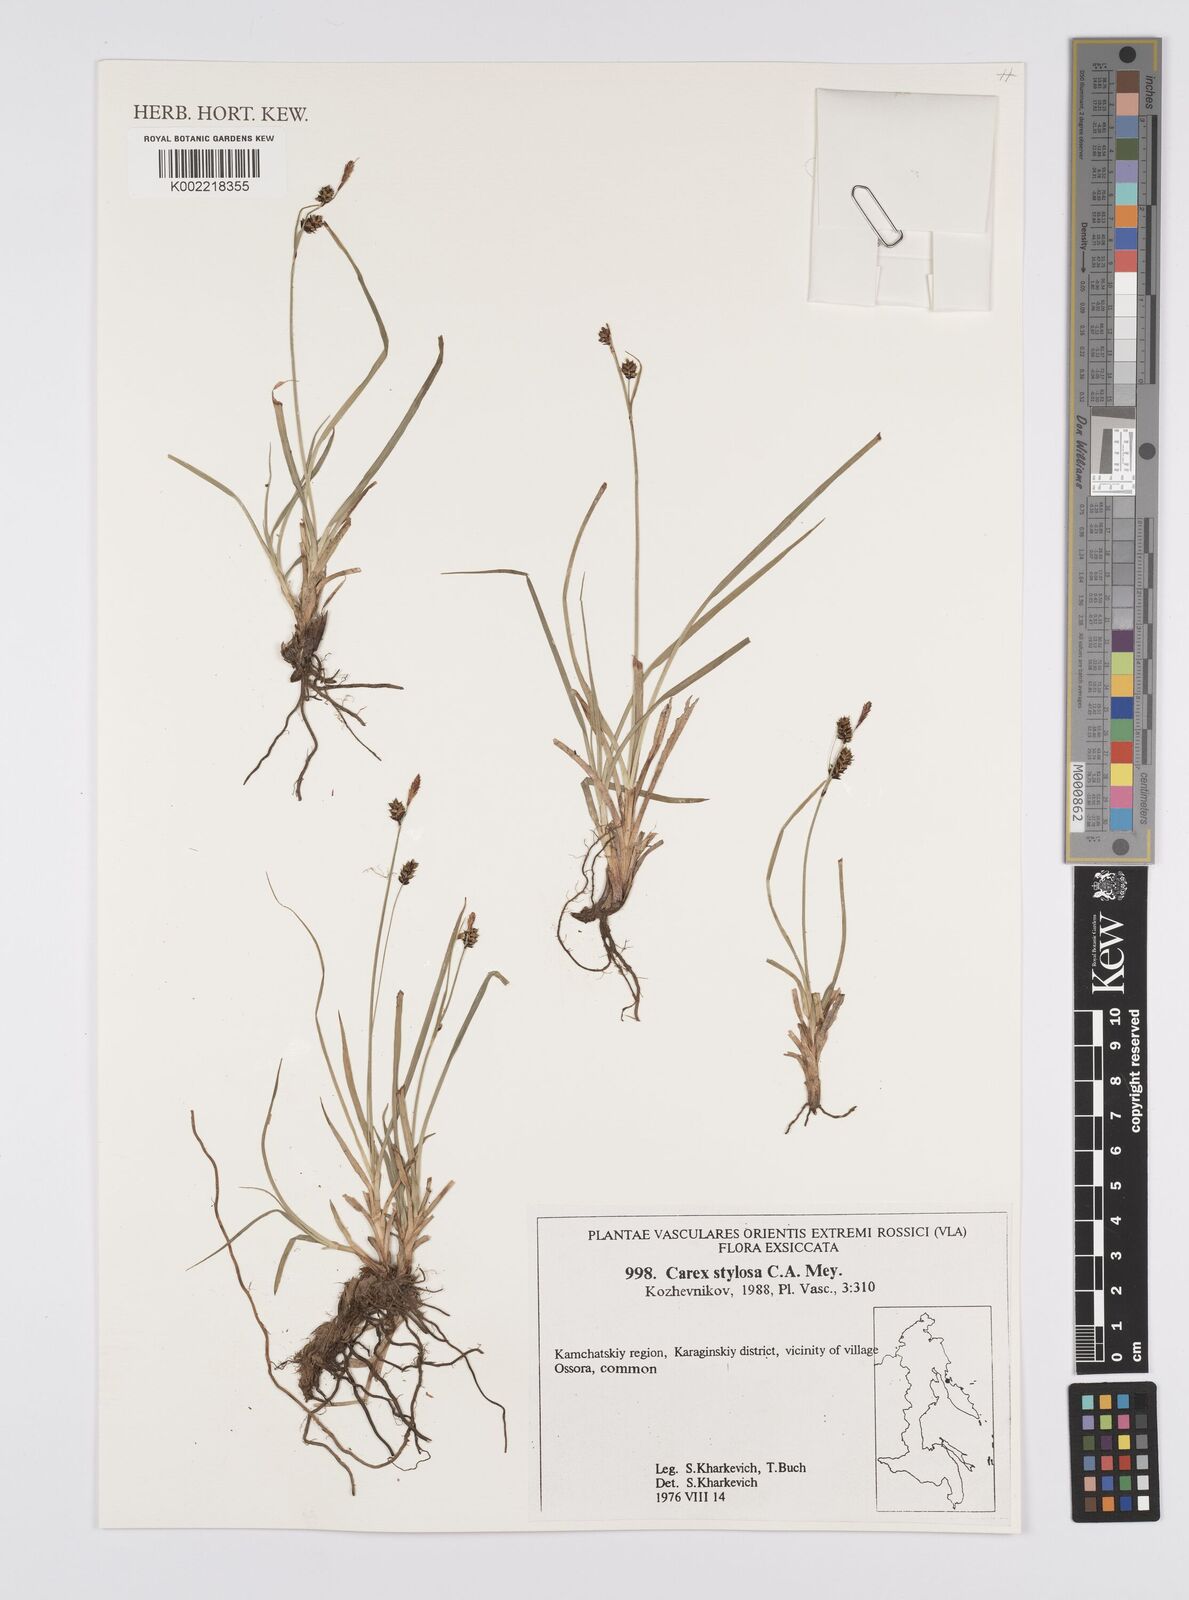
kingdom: Plantae
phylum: Tracheophyta
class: Liliopsida
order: Poales
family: Cyperaceae
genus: Carex
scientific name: Carex stylosa
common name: Long-styled sedge
